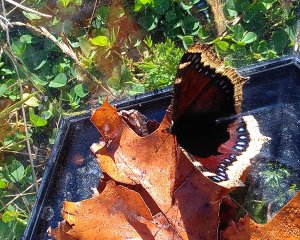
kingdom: Animalia
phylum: Arthropoda
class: Insecta
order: Lepidoptera
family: Nymphalidae
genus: Nymphalis
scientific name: Nymphalis antiopa
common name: Mourning Cloak
